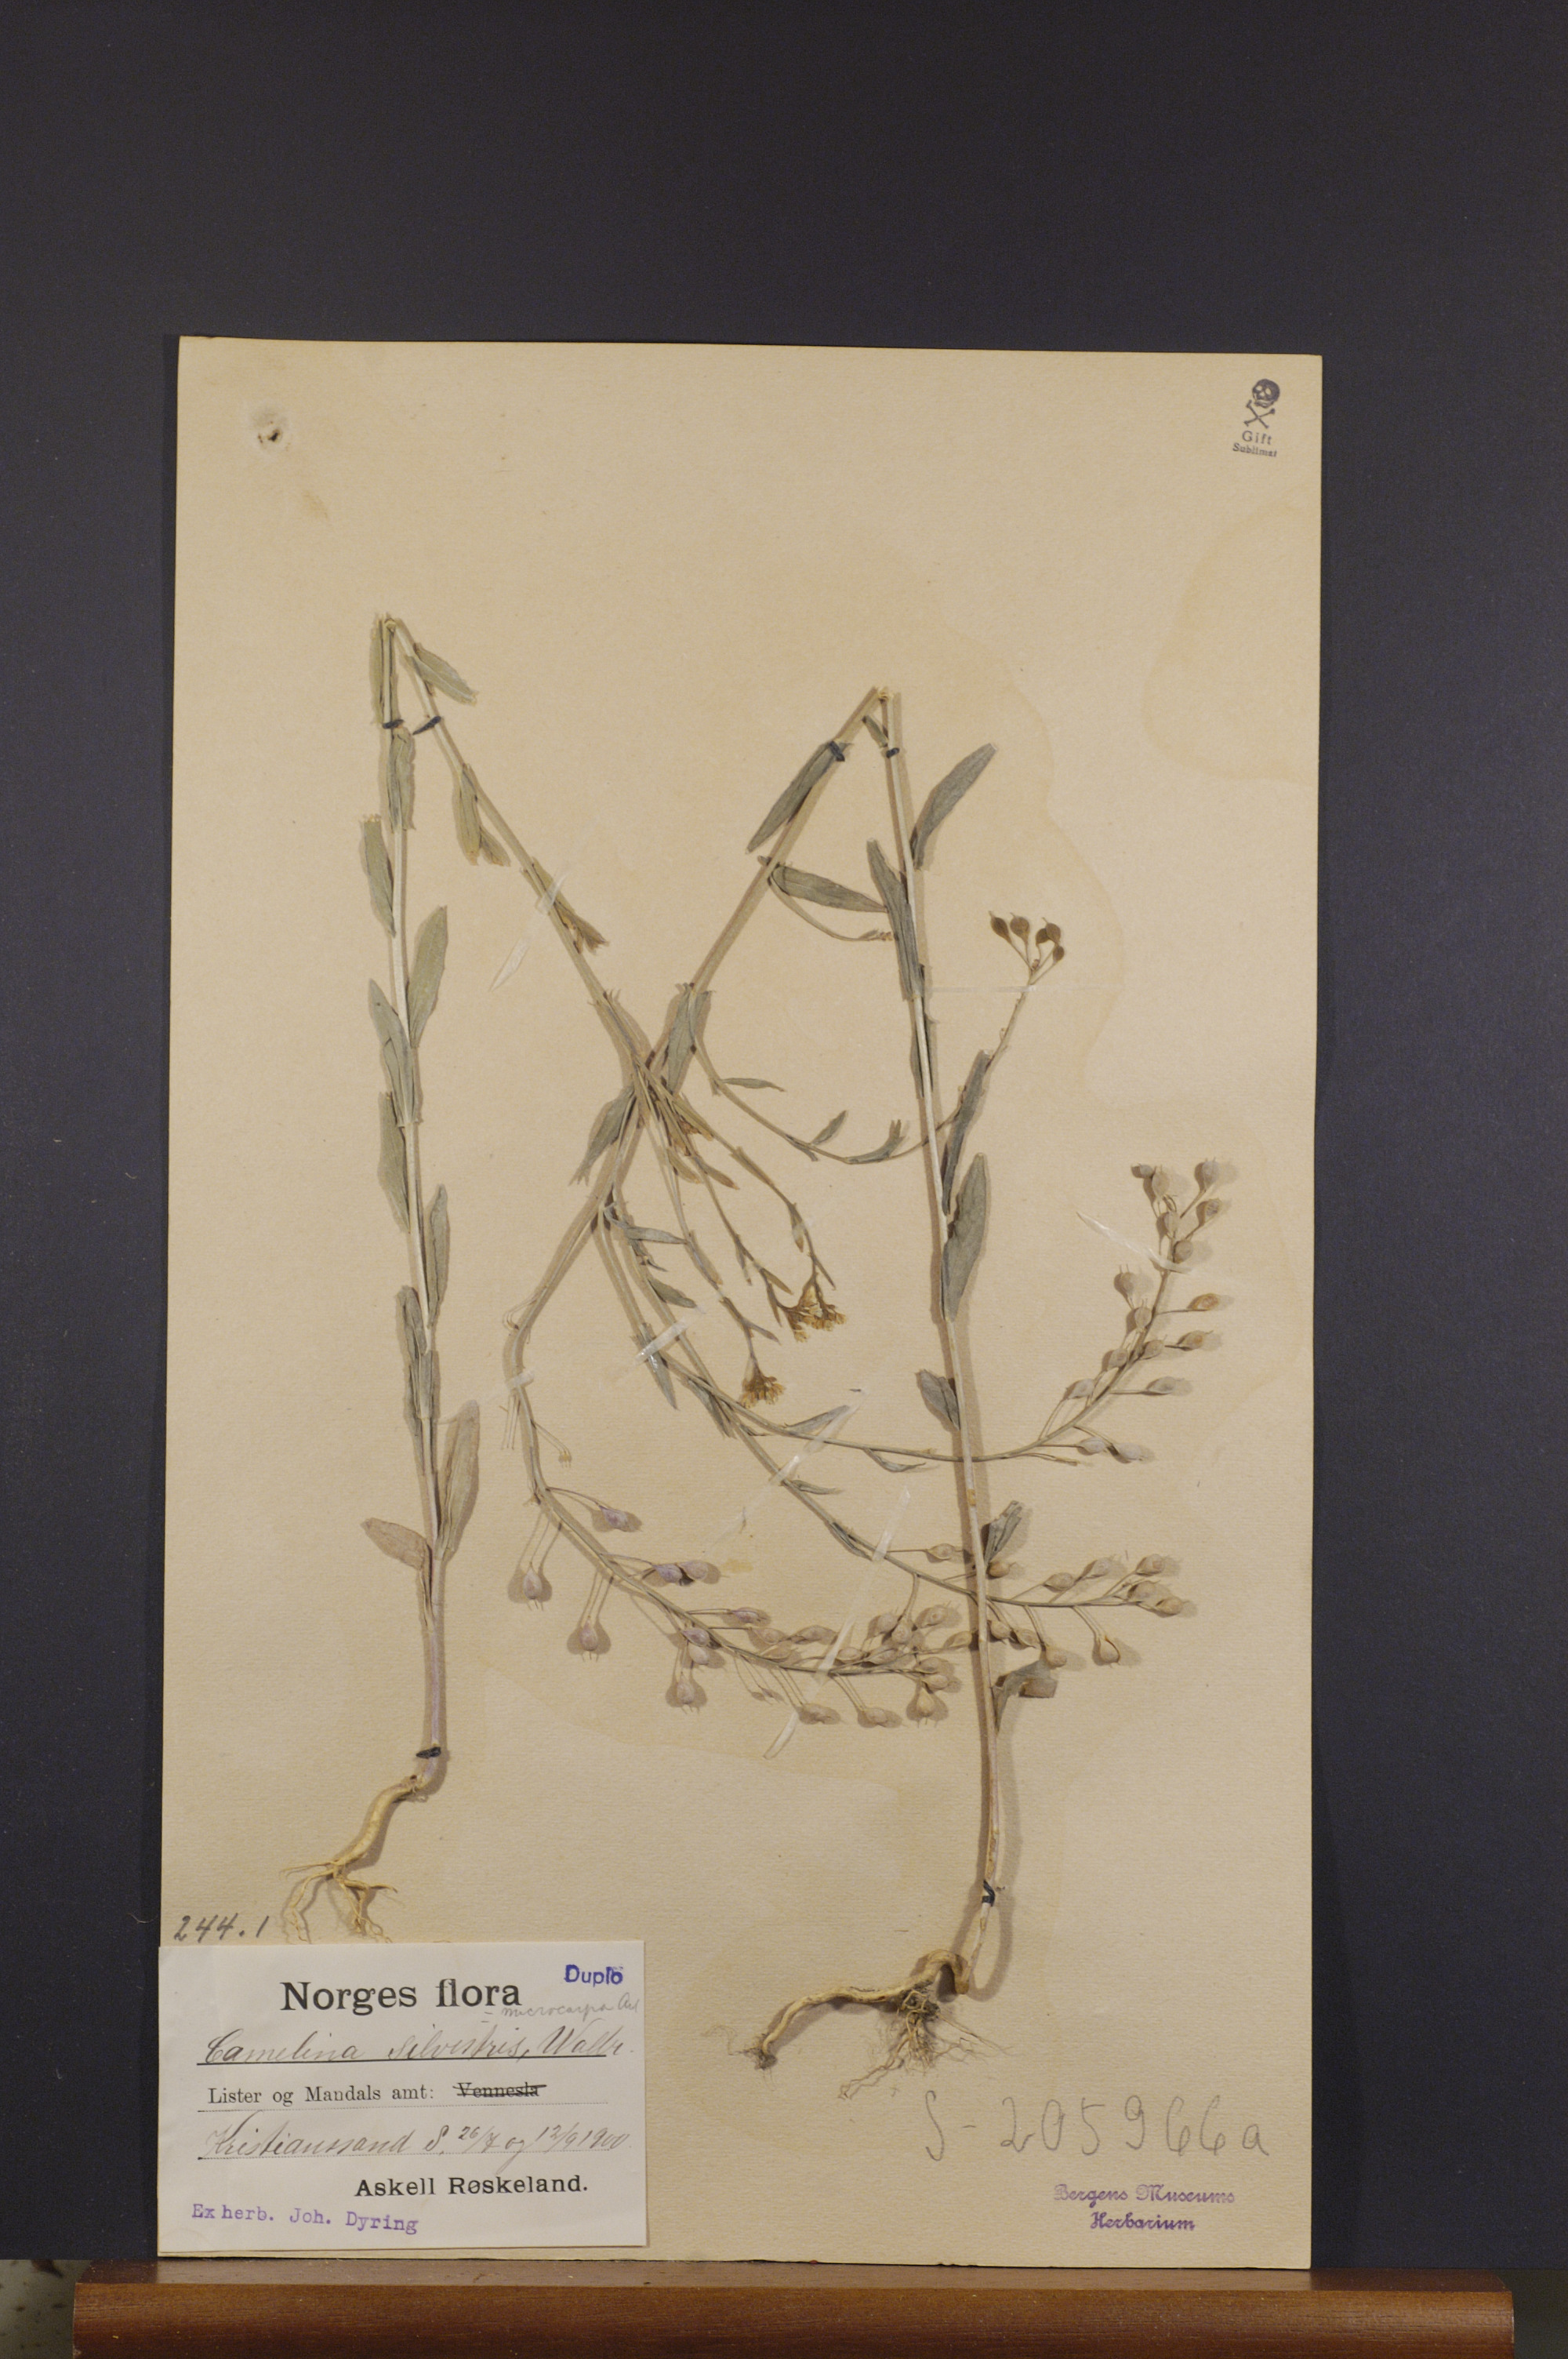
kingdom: Plantae
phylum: Tracheophyta
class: Magnoliopsida
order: Brassicales
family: Brassicaceae
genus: Camelina
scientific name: Camelina sativa
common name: Gold-of-pleasure
